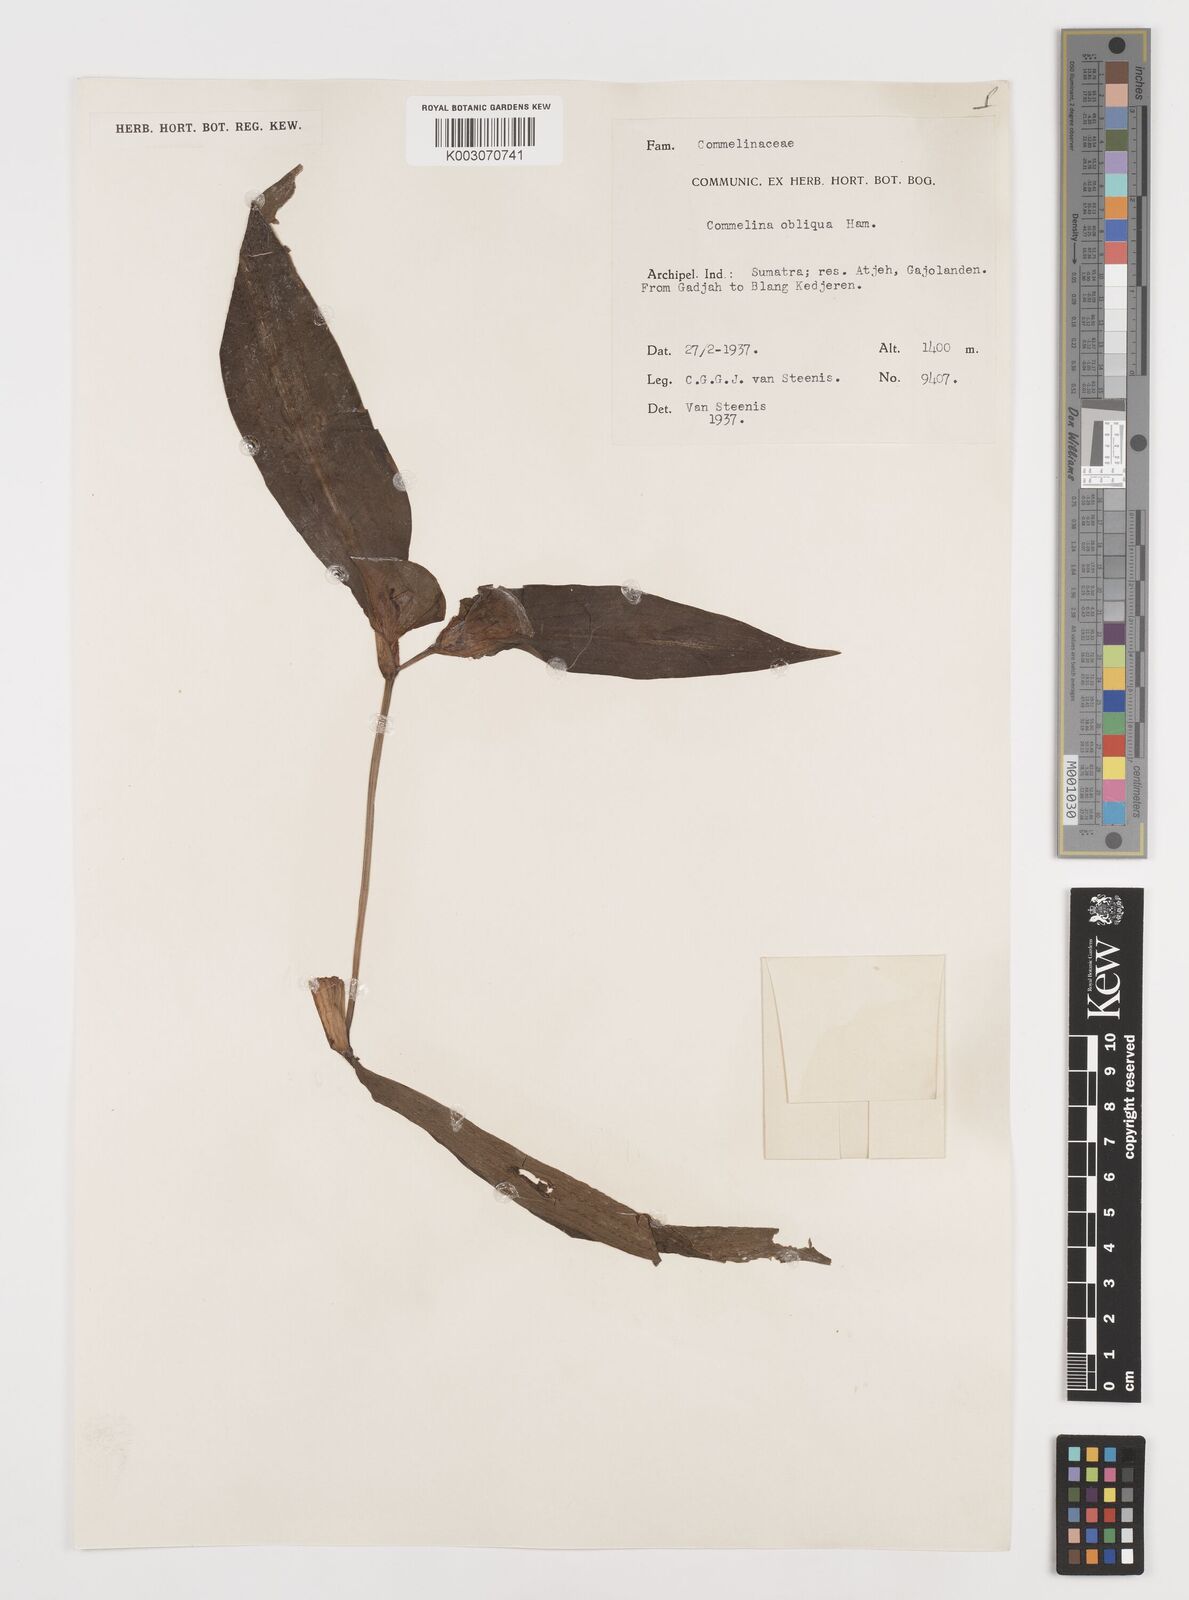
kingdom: Plantae
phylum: Tracheophyta
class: Liliopsida
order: Commelinales
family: Commelinaceae
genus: Commelina
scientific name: Commelina paludosa
